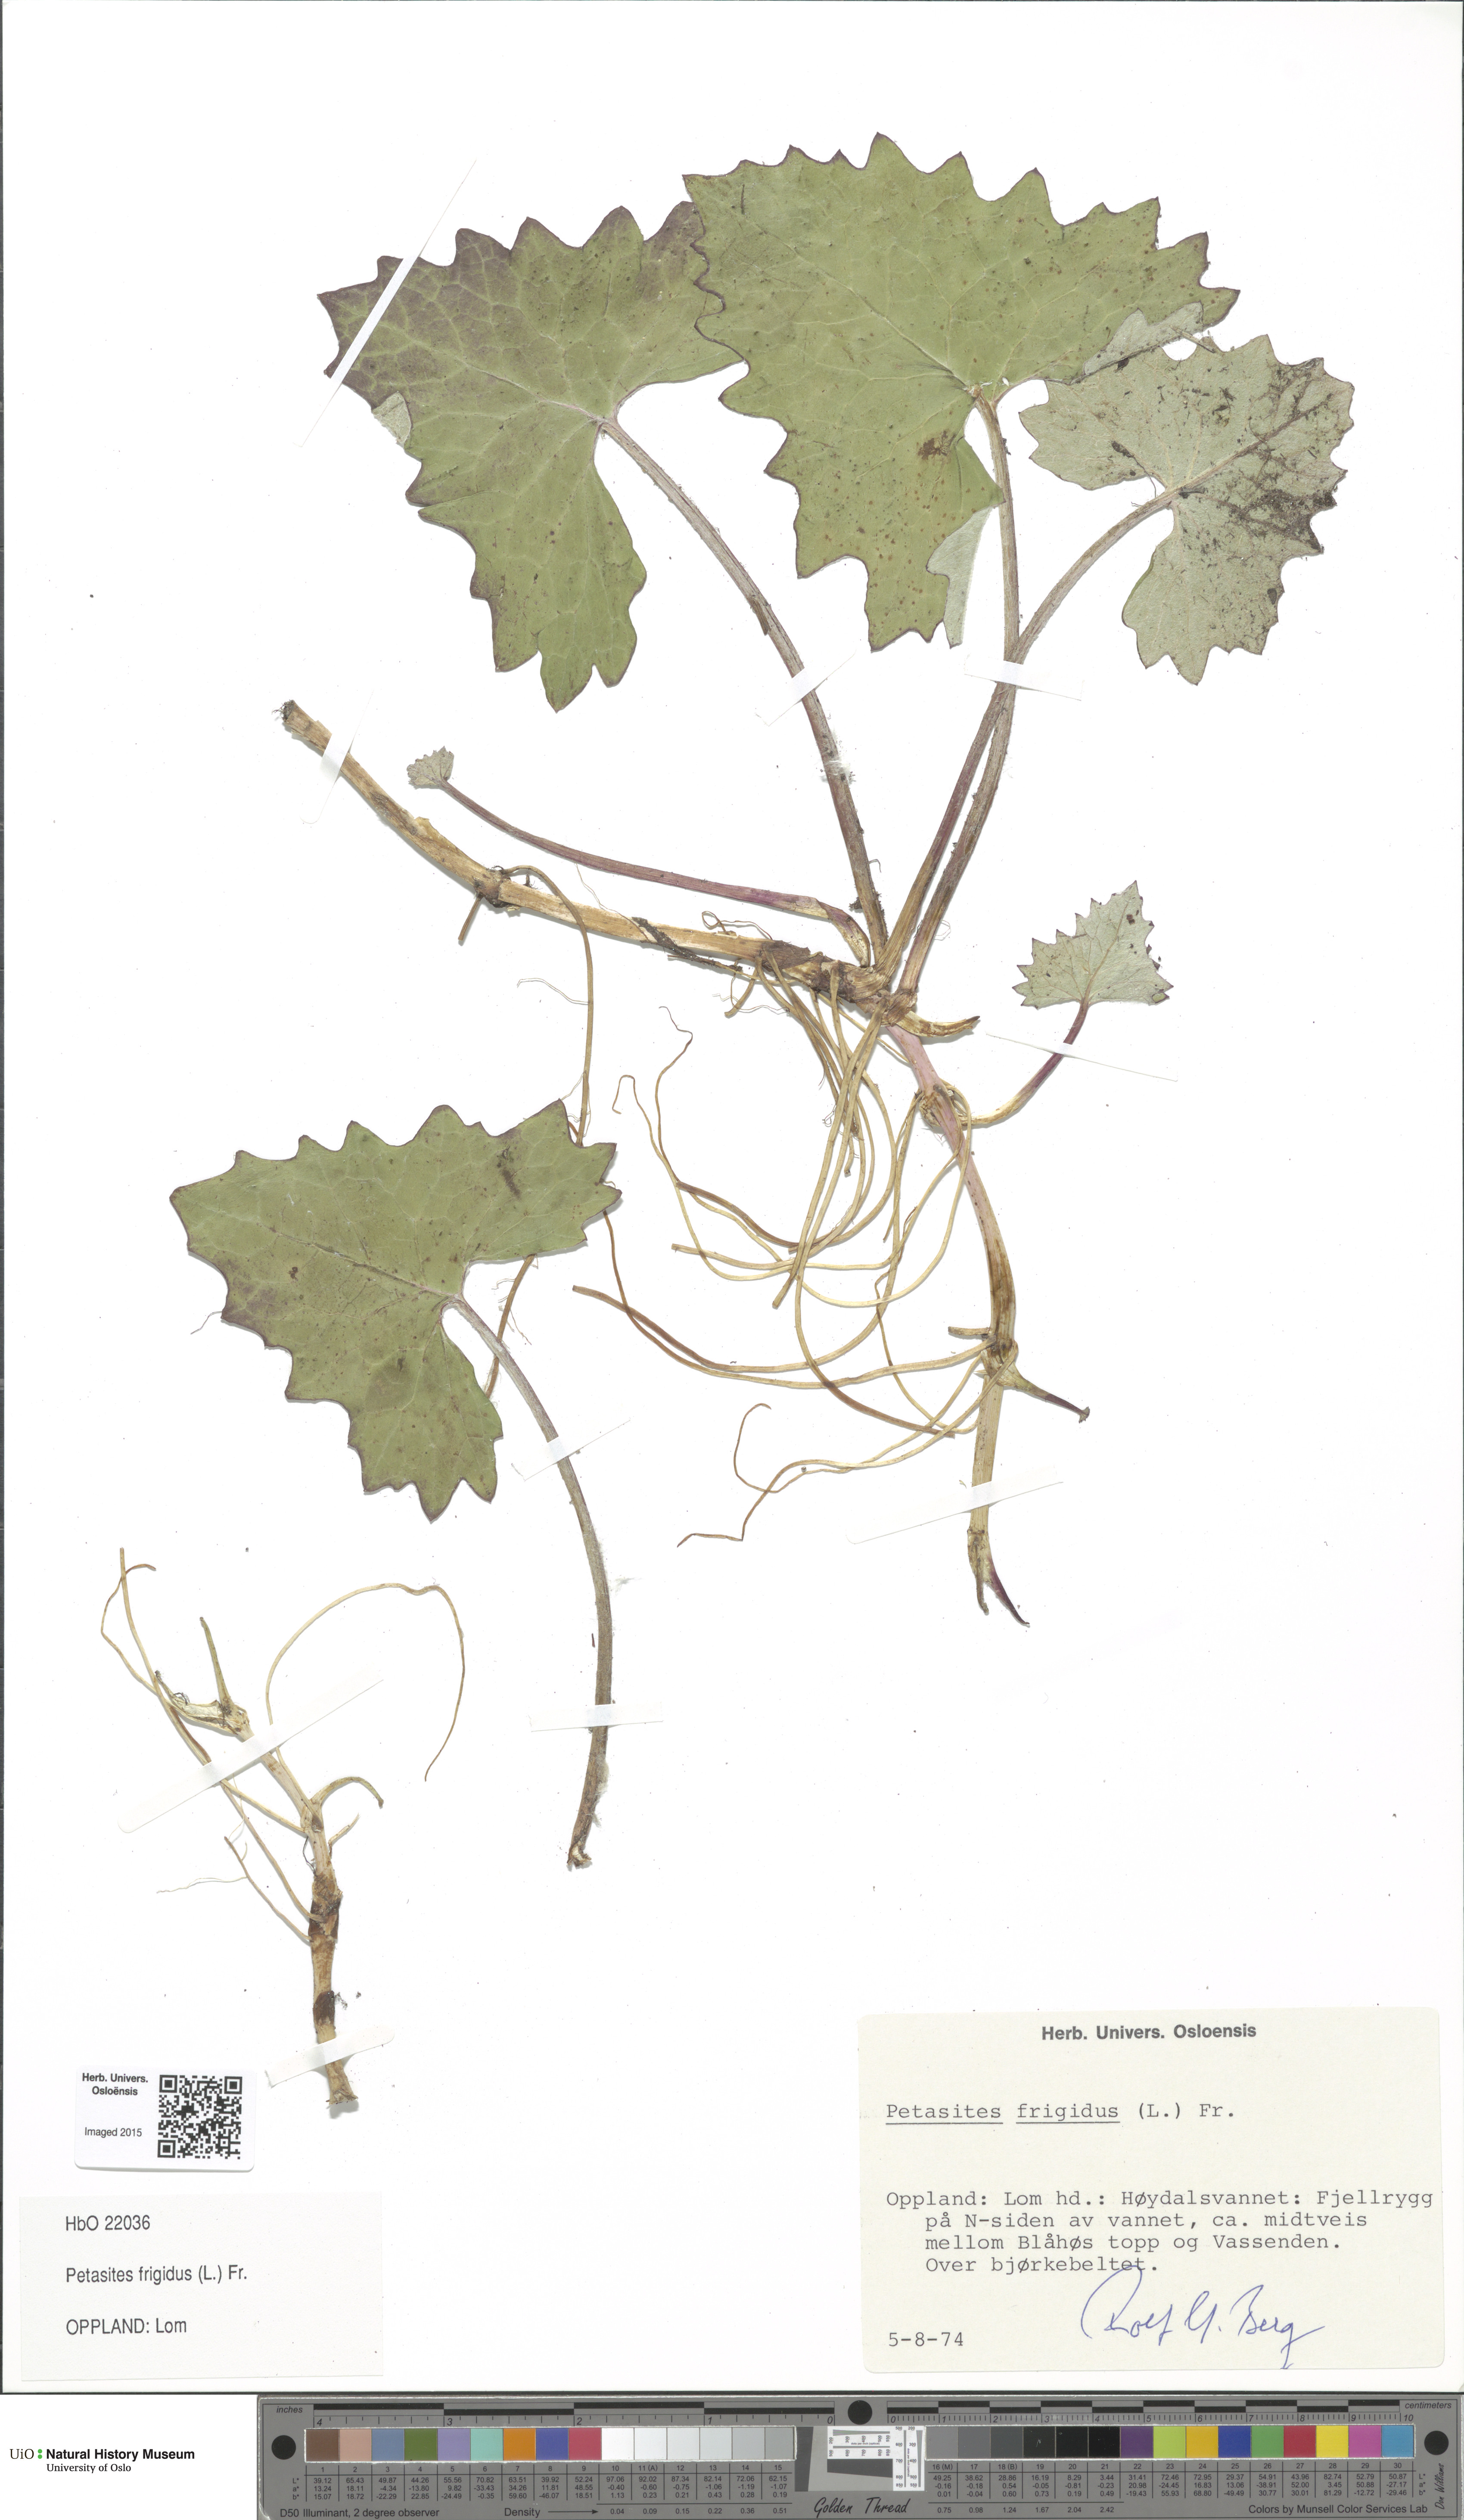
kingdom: Plantae
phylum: Tracheophyta
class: Magnoliopsida
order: Asterales
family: Asteraceae
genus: Petasites
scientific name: Petasites frigidus
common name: Arctic butterbur
